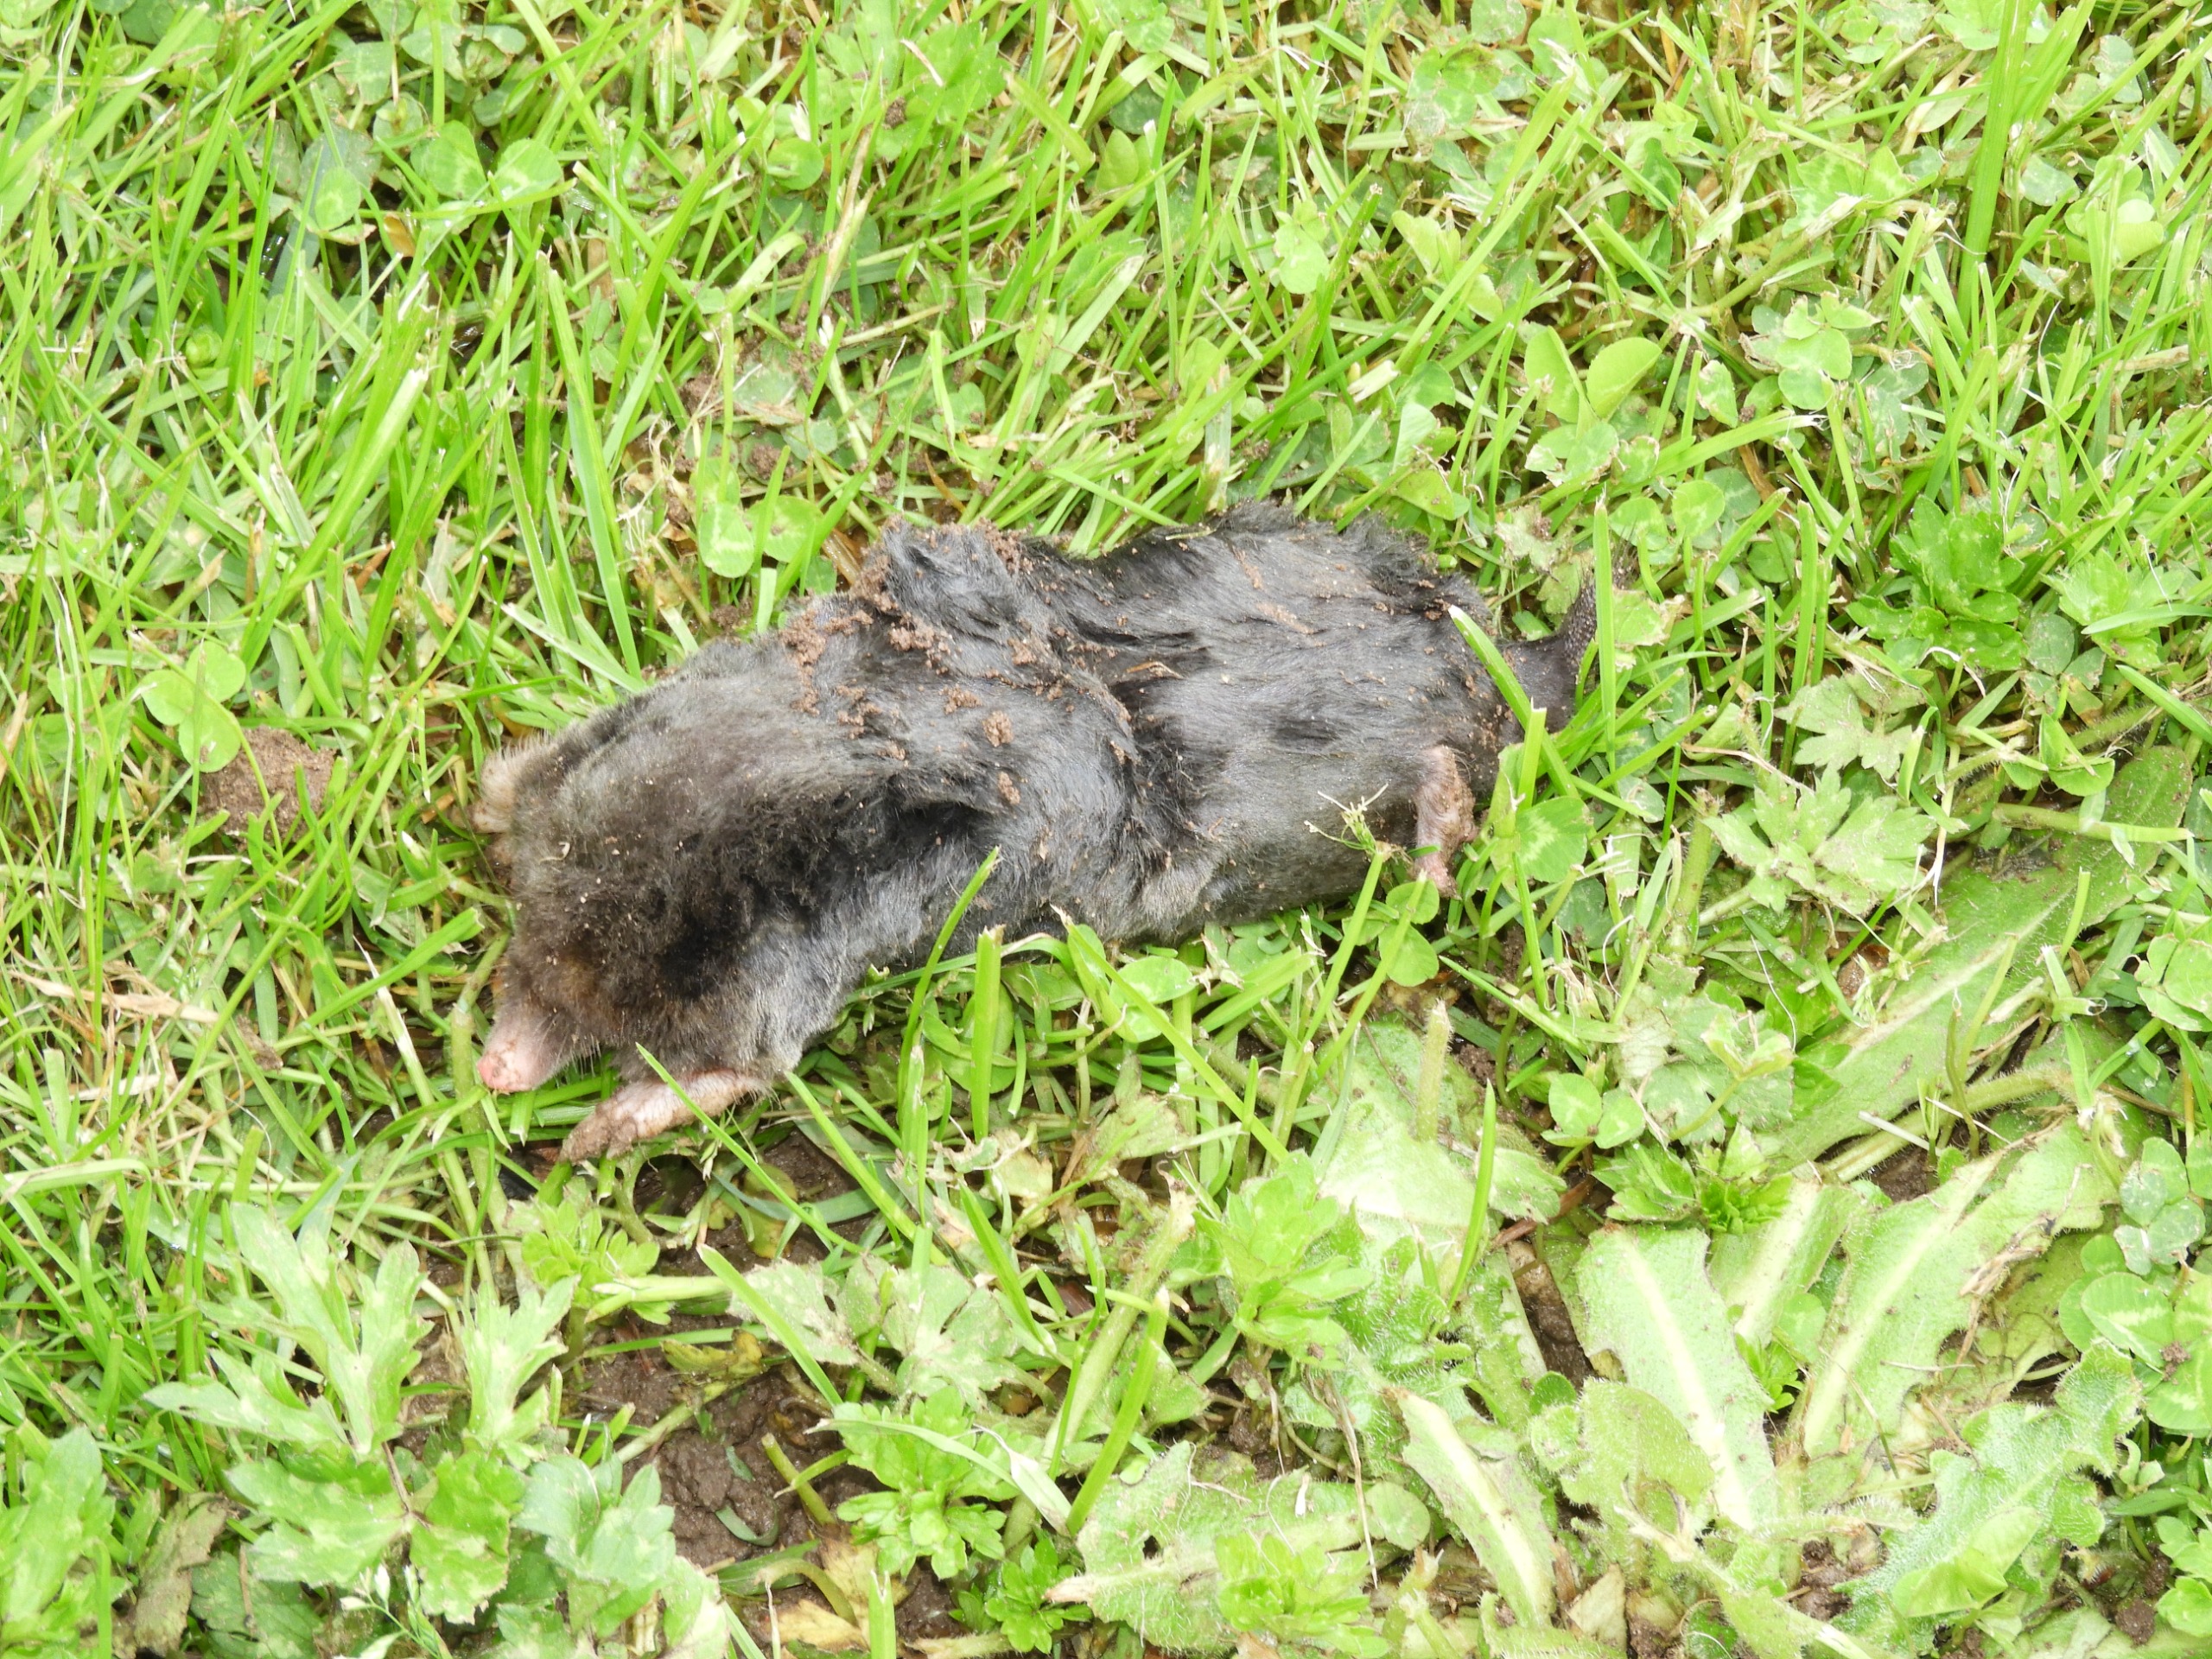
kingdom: Animalia
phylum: Chordata
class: Mammalia
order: Soricomorpha
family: Talpidae
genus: Talpa
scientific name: Talpa europaea
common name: Muldvarp
